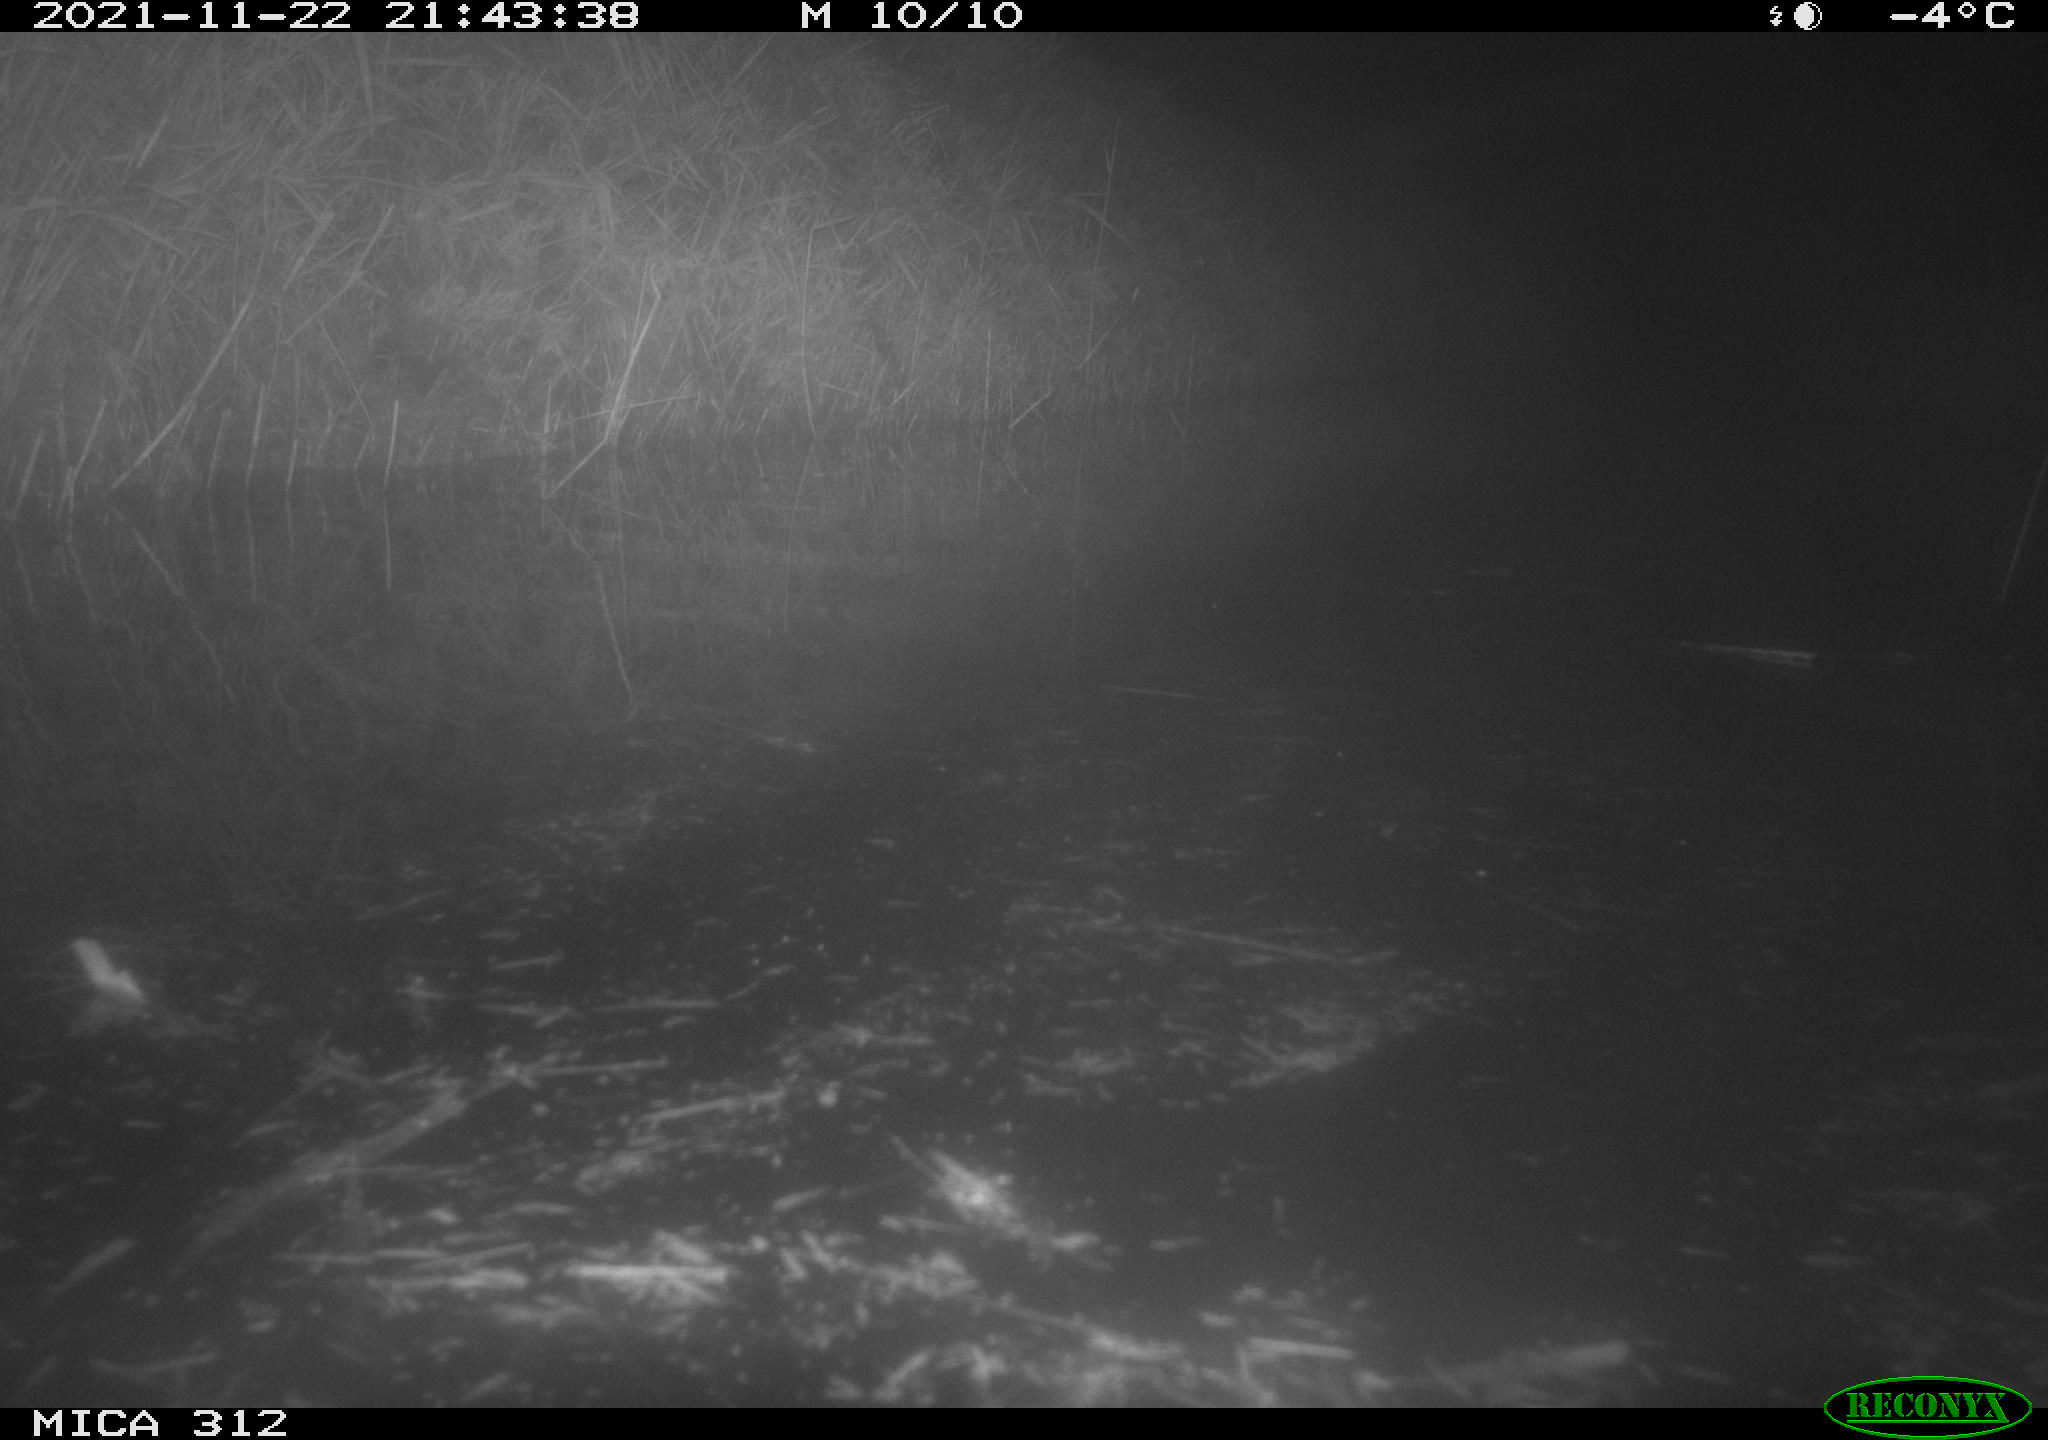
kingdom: Animalia
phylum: Chordata
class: Mammalia
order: Rodentia
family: Muridae
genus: Rattus
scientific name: Rattus norvegicus
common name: Brown rat
